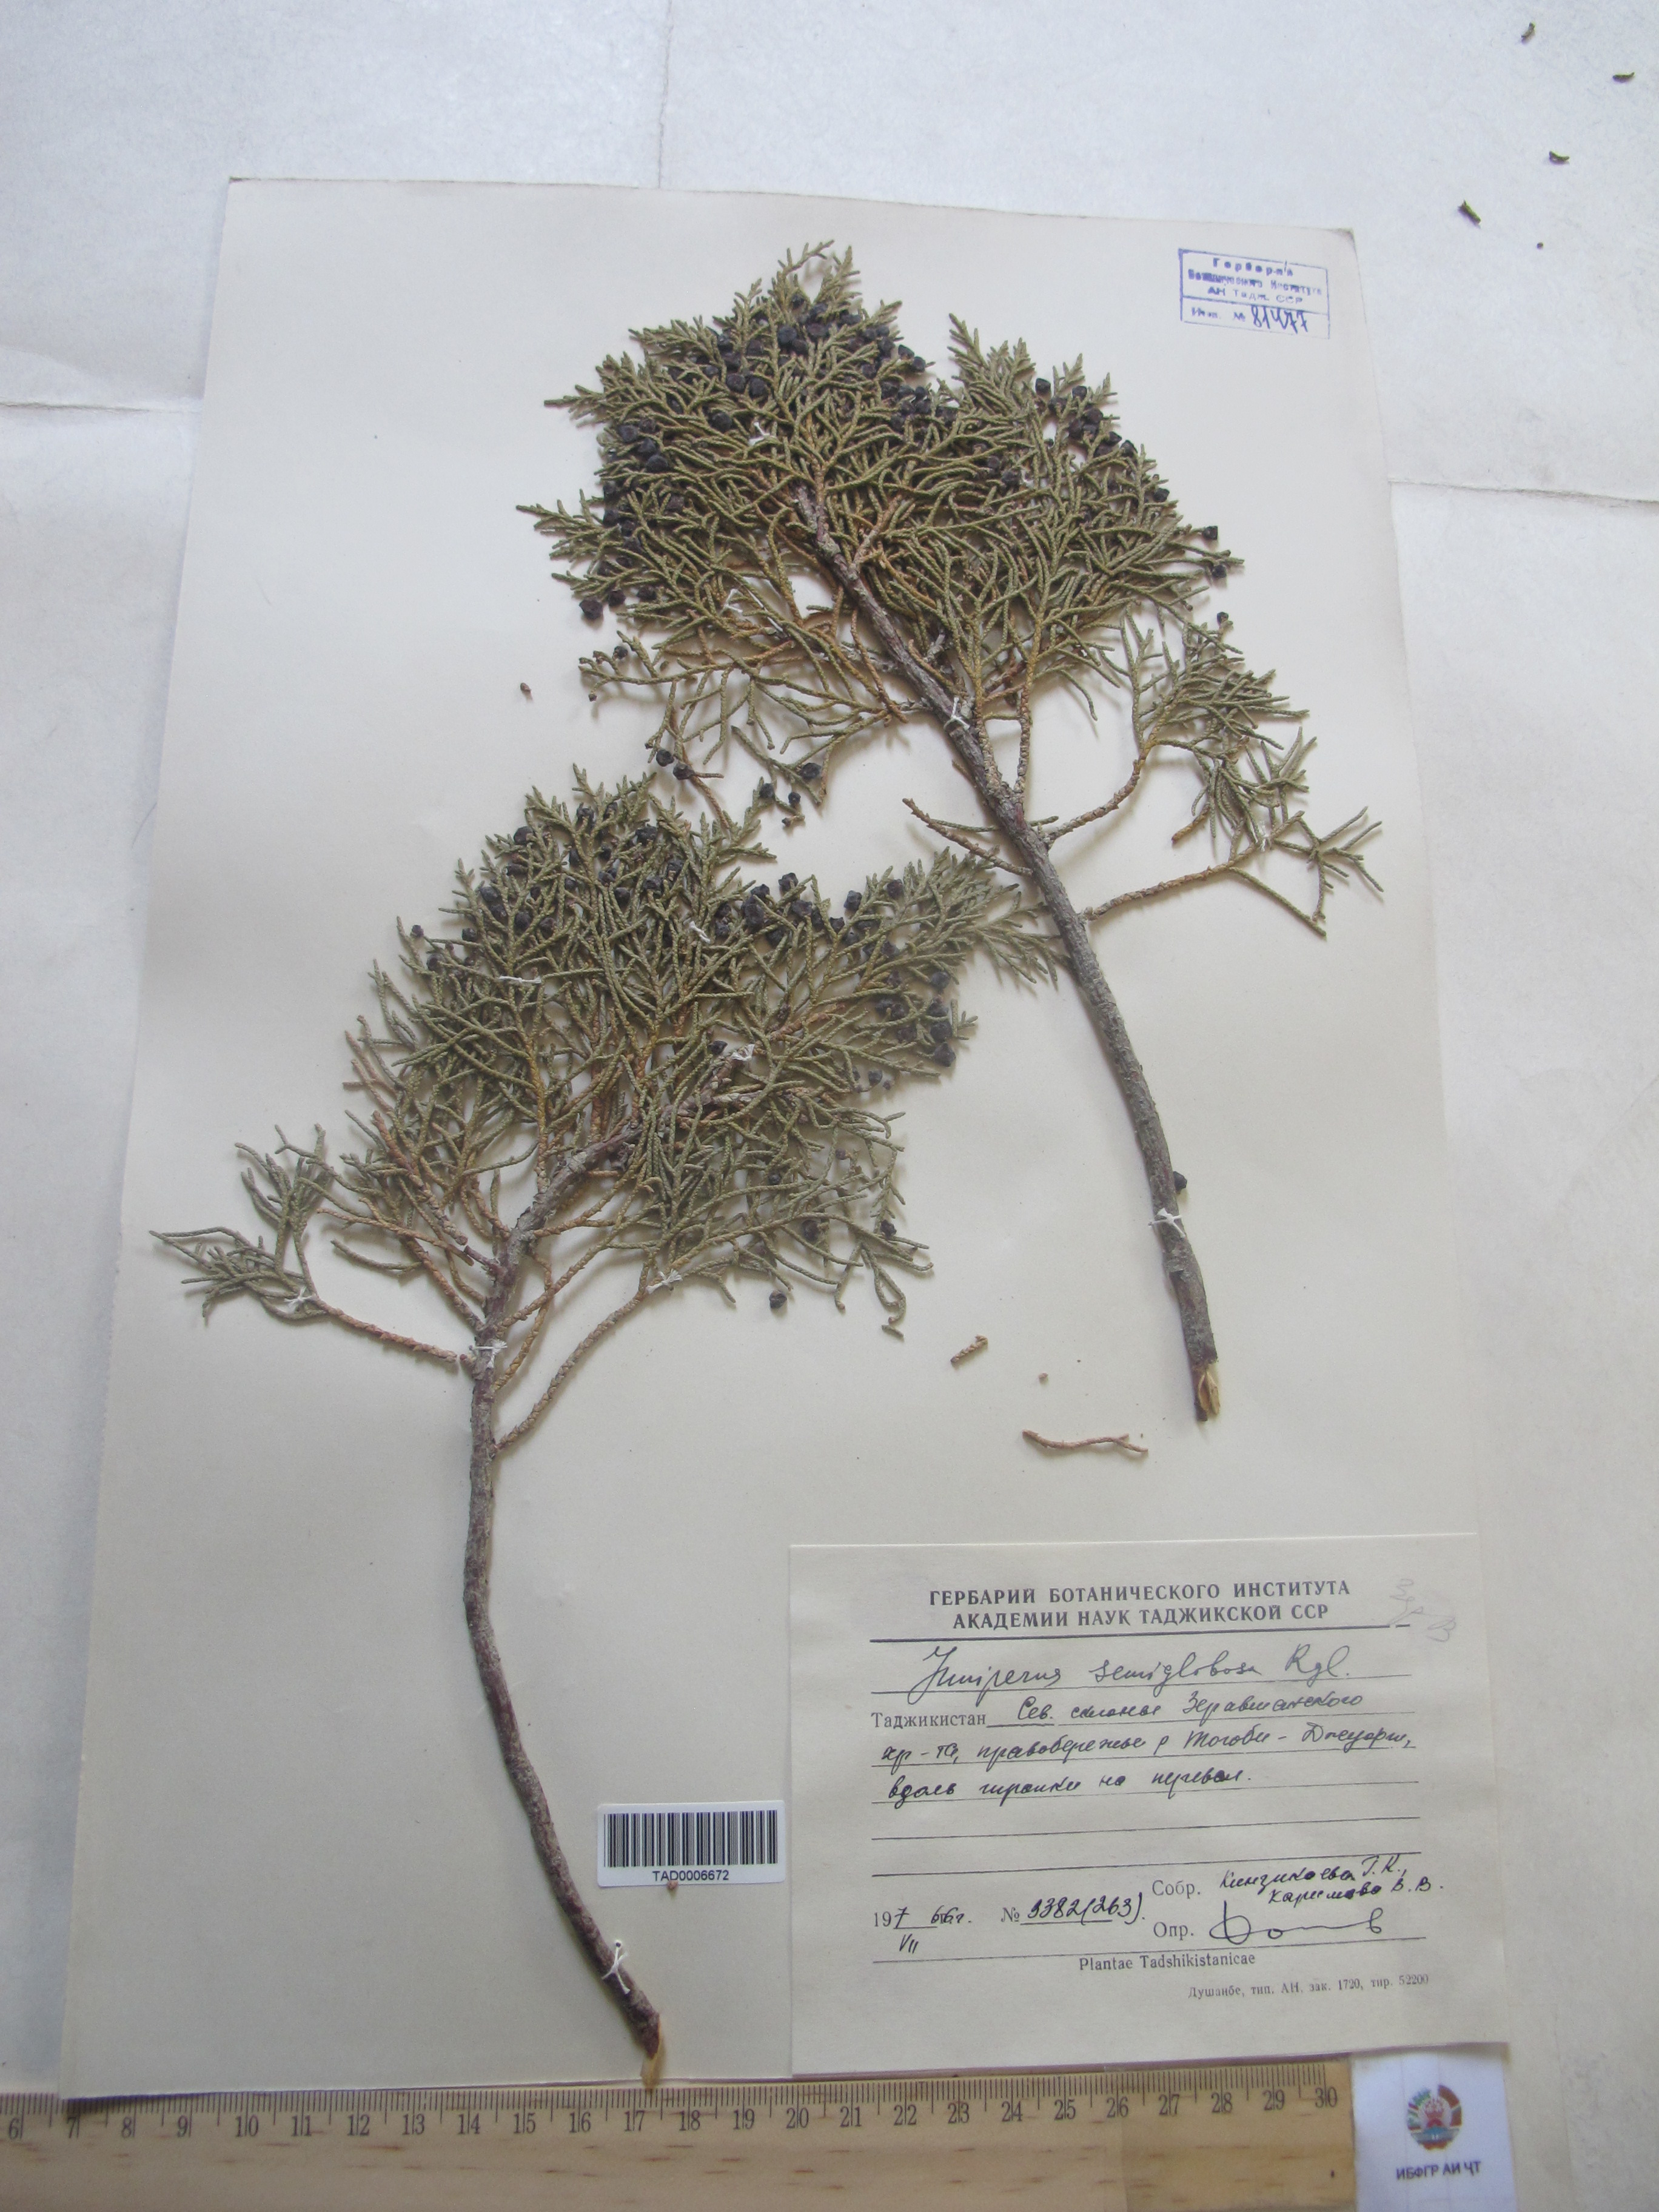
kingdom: Plantae
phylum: Tracheophyta
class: Pinopsida
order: Pinales
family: Cupressaceae
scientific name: Cupressaceae
